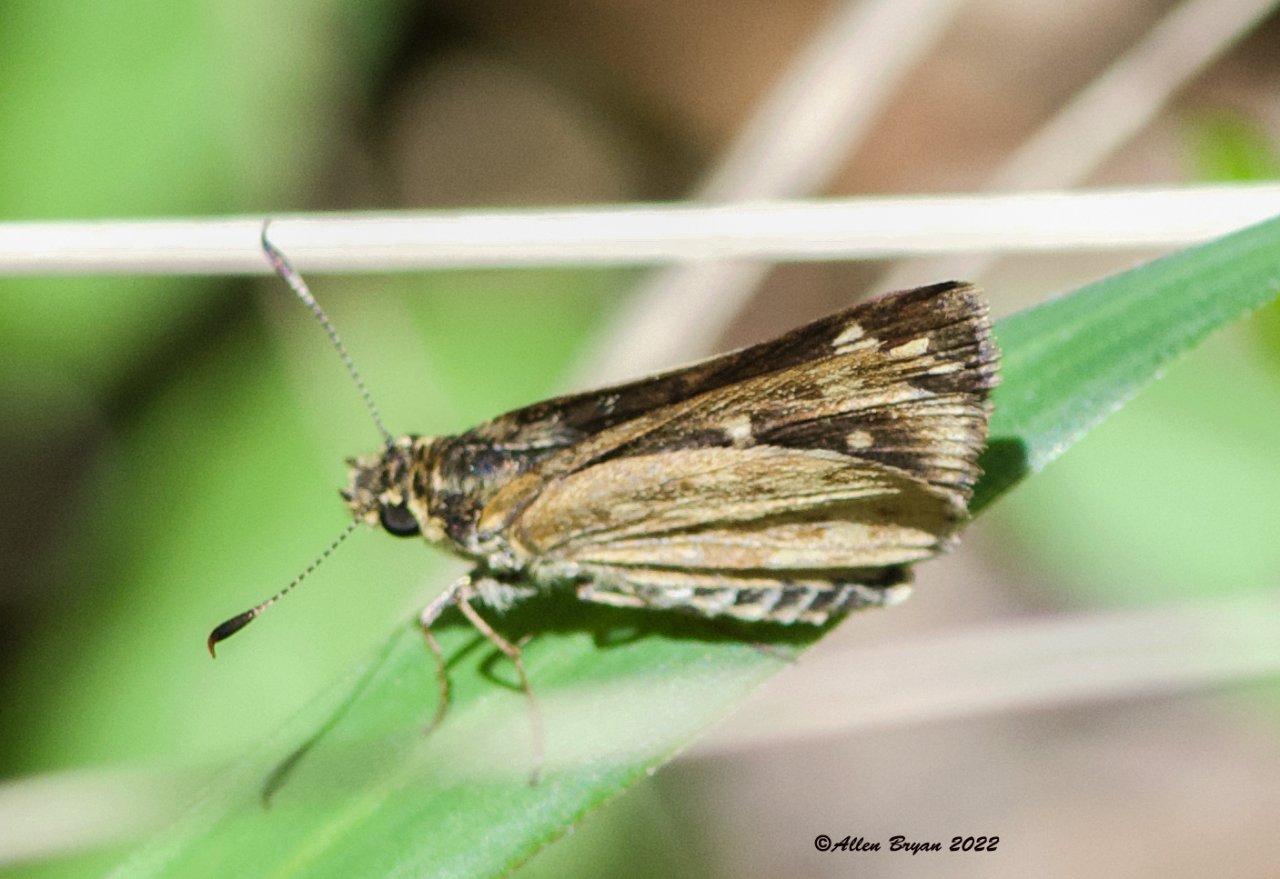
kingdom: Animalia
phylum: Arthropoda
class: Insecta
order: Lepidoptera
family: Hesperiidae
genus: Mastor
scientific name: Mastor carolina
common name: Carolina Roadside-Skipper
